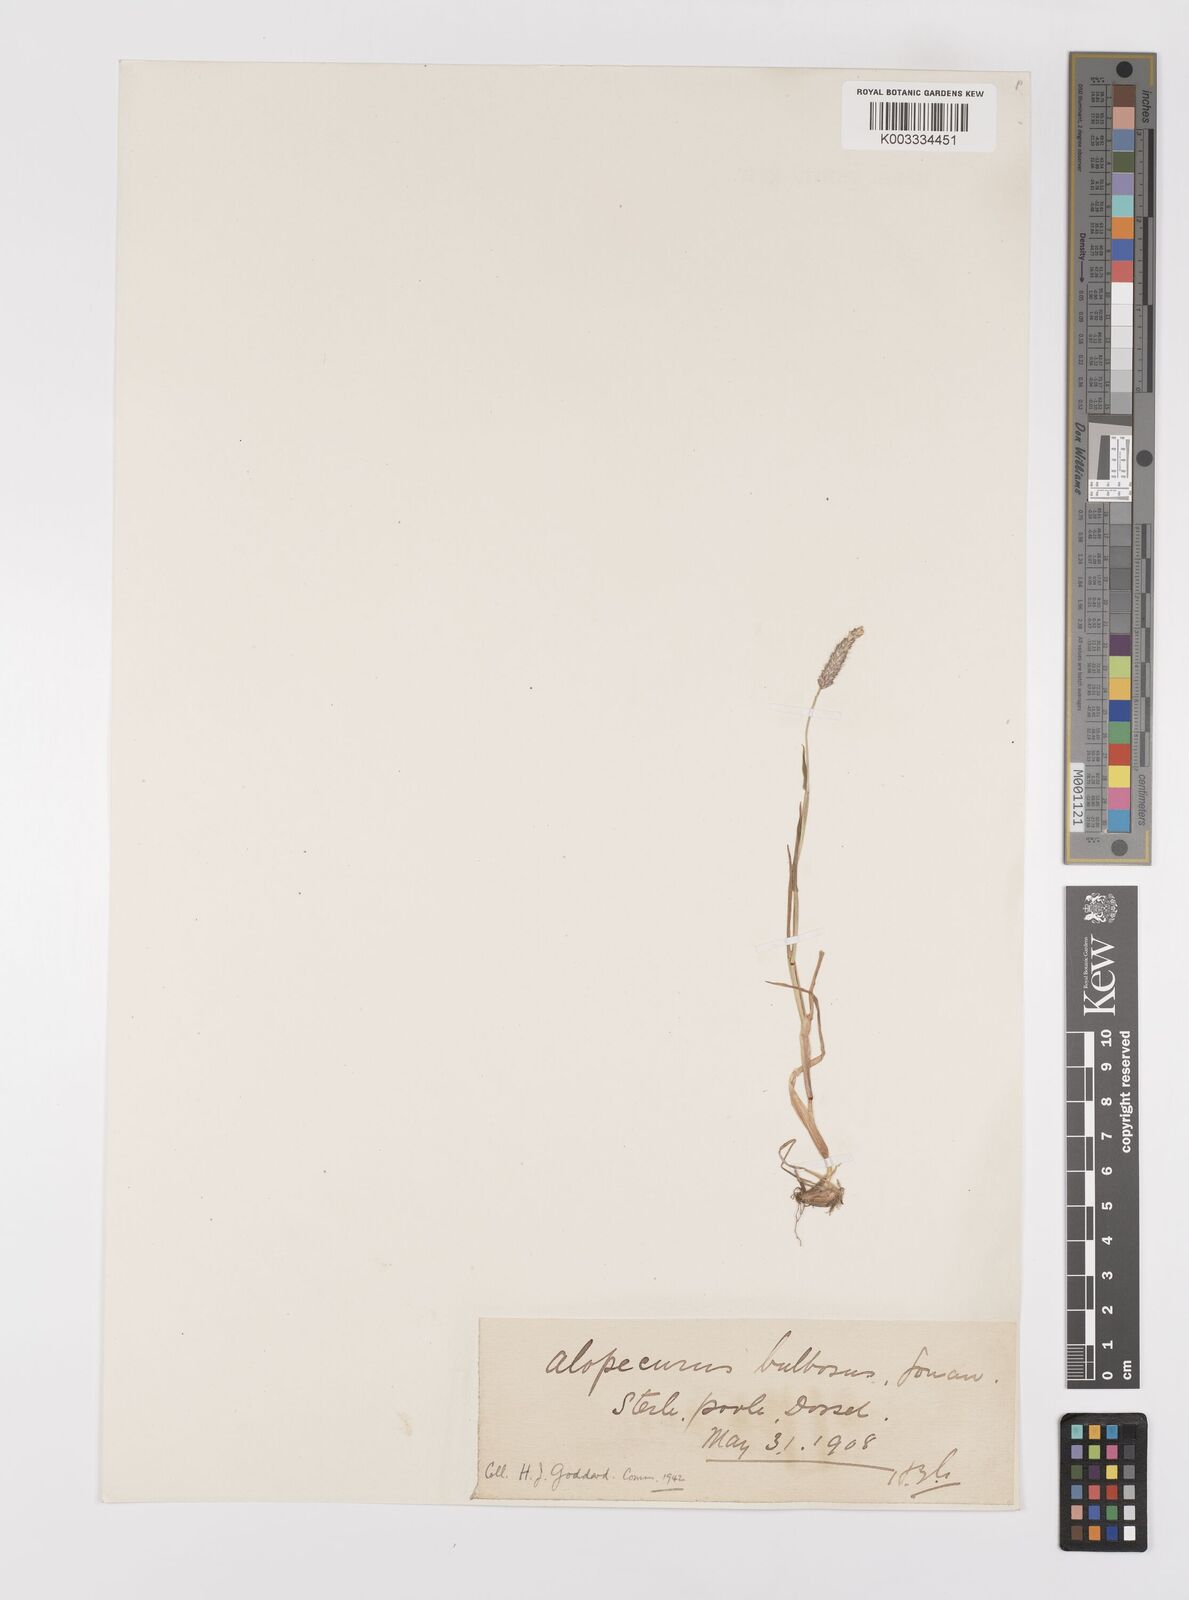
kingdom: Plantae
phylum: Tracheophyta
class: Liliopsida
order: Poales
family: Poaceae
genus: Alopecurus
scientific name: Alopecurus bulbosus
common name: Bulbous foxtail
